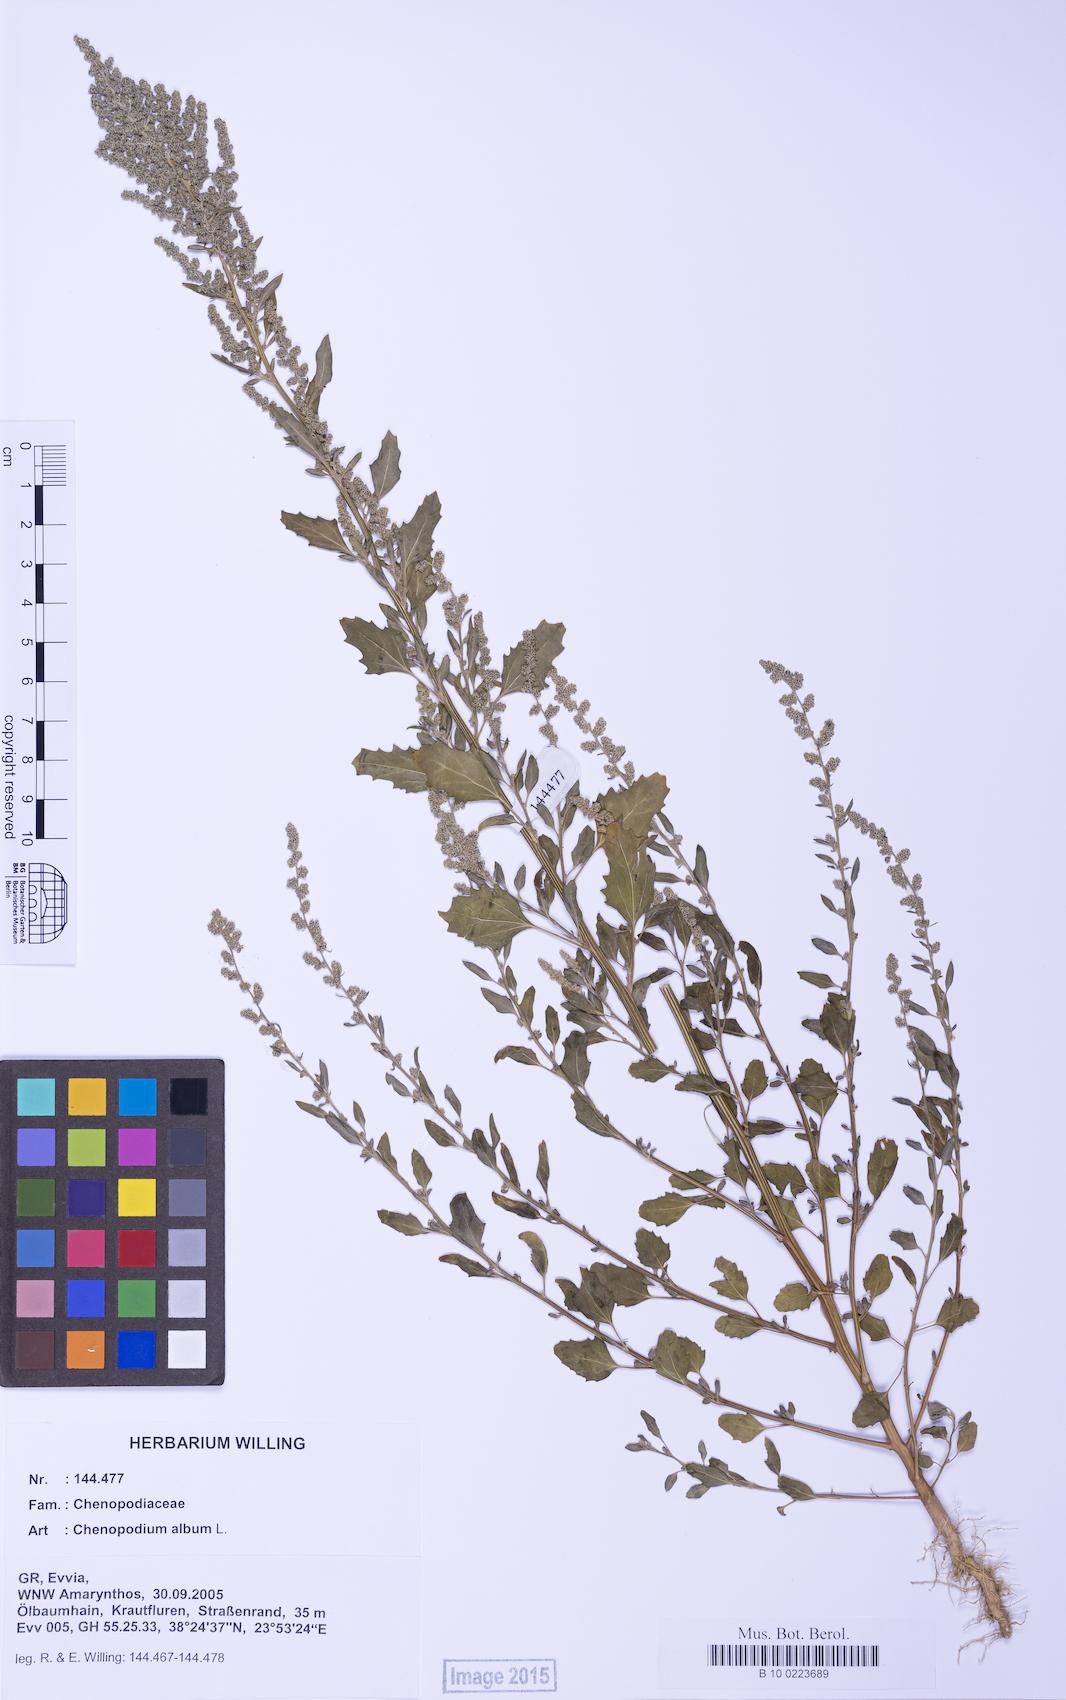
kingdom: Plantae
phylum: Tracheophyta
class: Magnoliopsida
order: Caryophyllales
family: Amaranthaceae
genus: Chenopodium
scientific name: Chenopodium album
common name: Fat-hen
